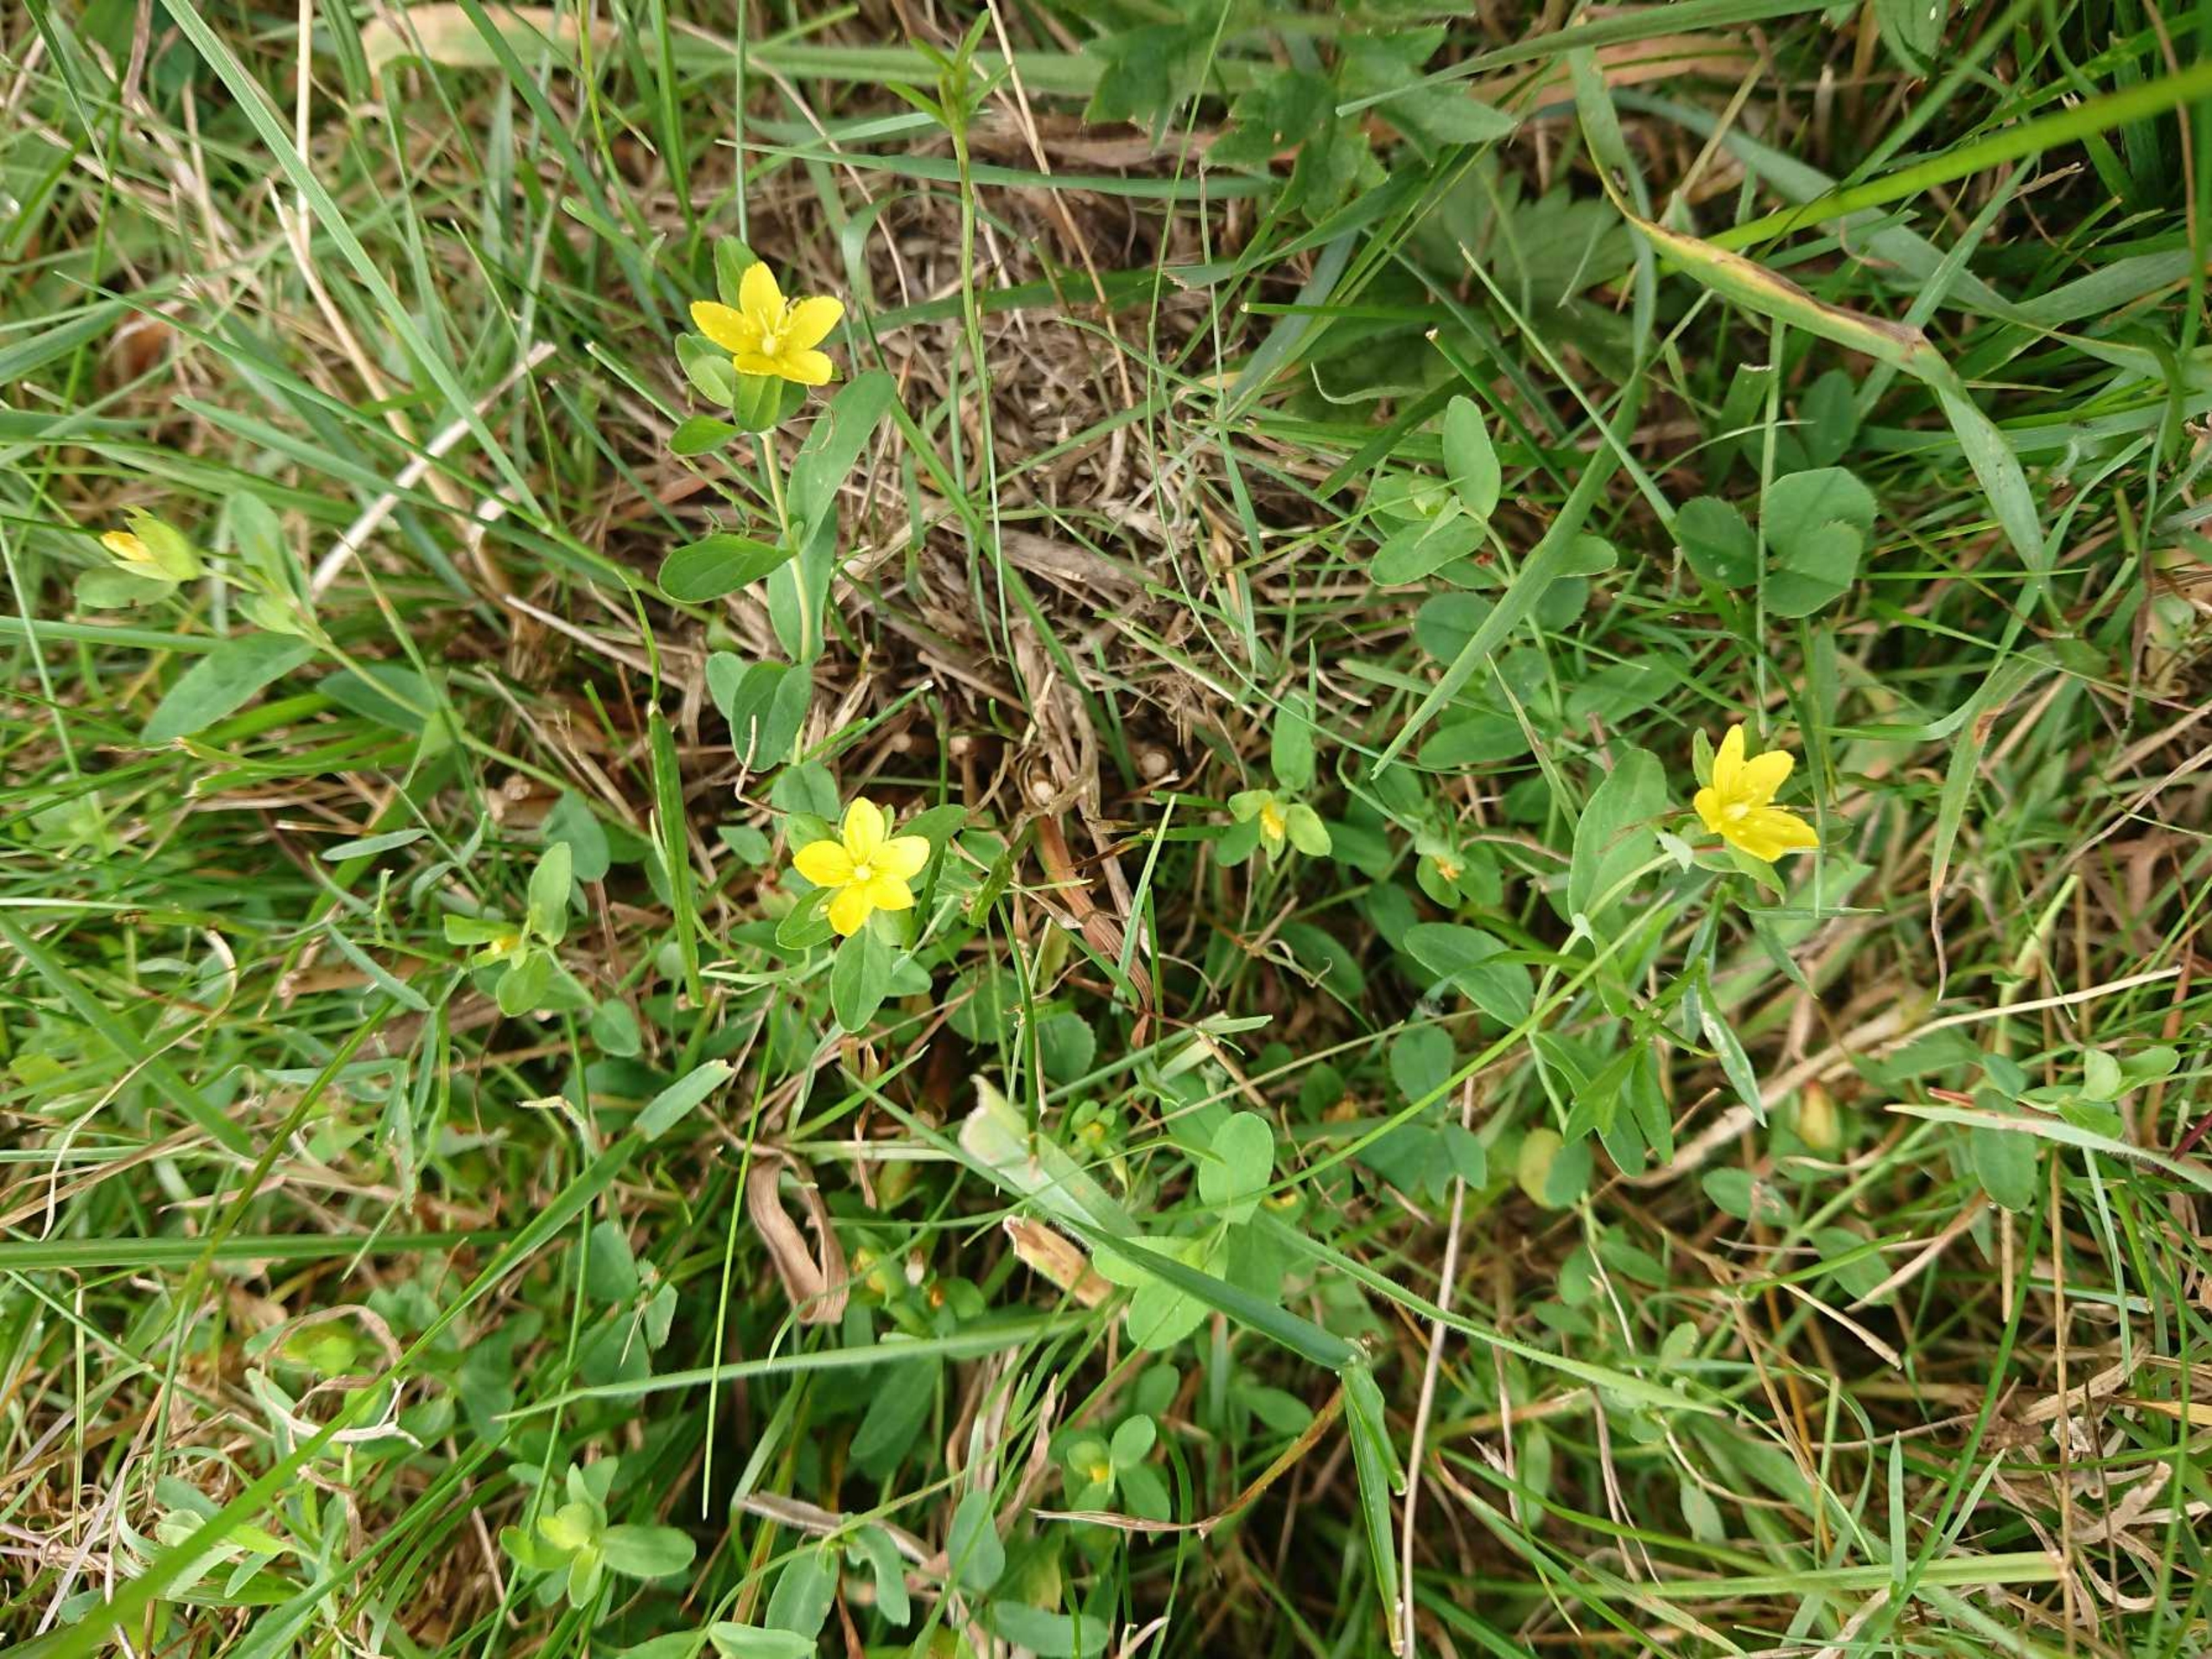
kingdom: Plantae
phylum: Tracheophyta
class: Magnoliopsida
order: Malpighiales
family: Hypericaceae
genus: Hypericum
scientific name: Hypericum humifusum
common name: Dværg-perikon
